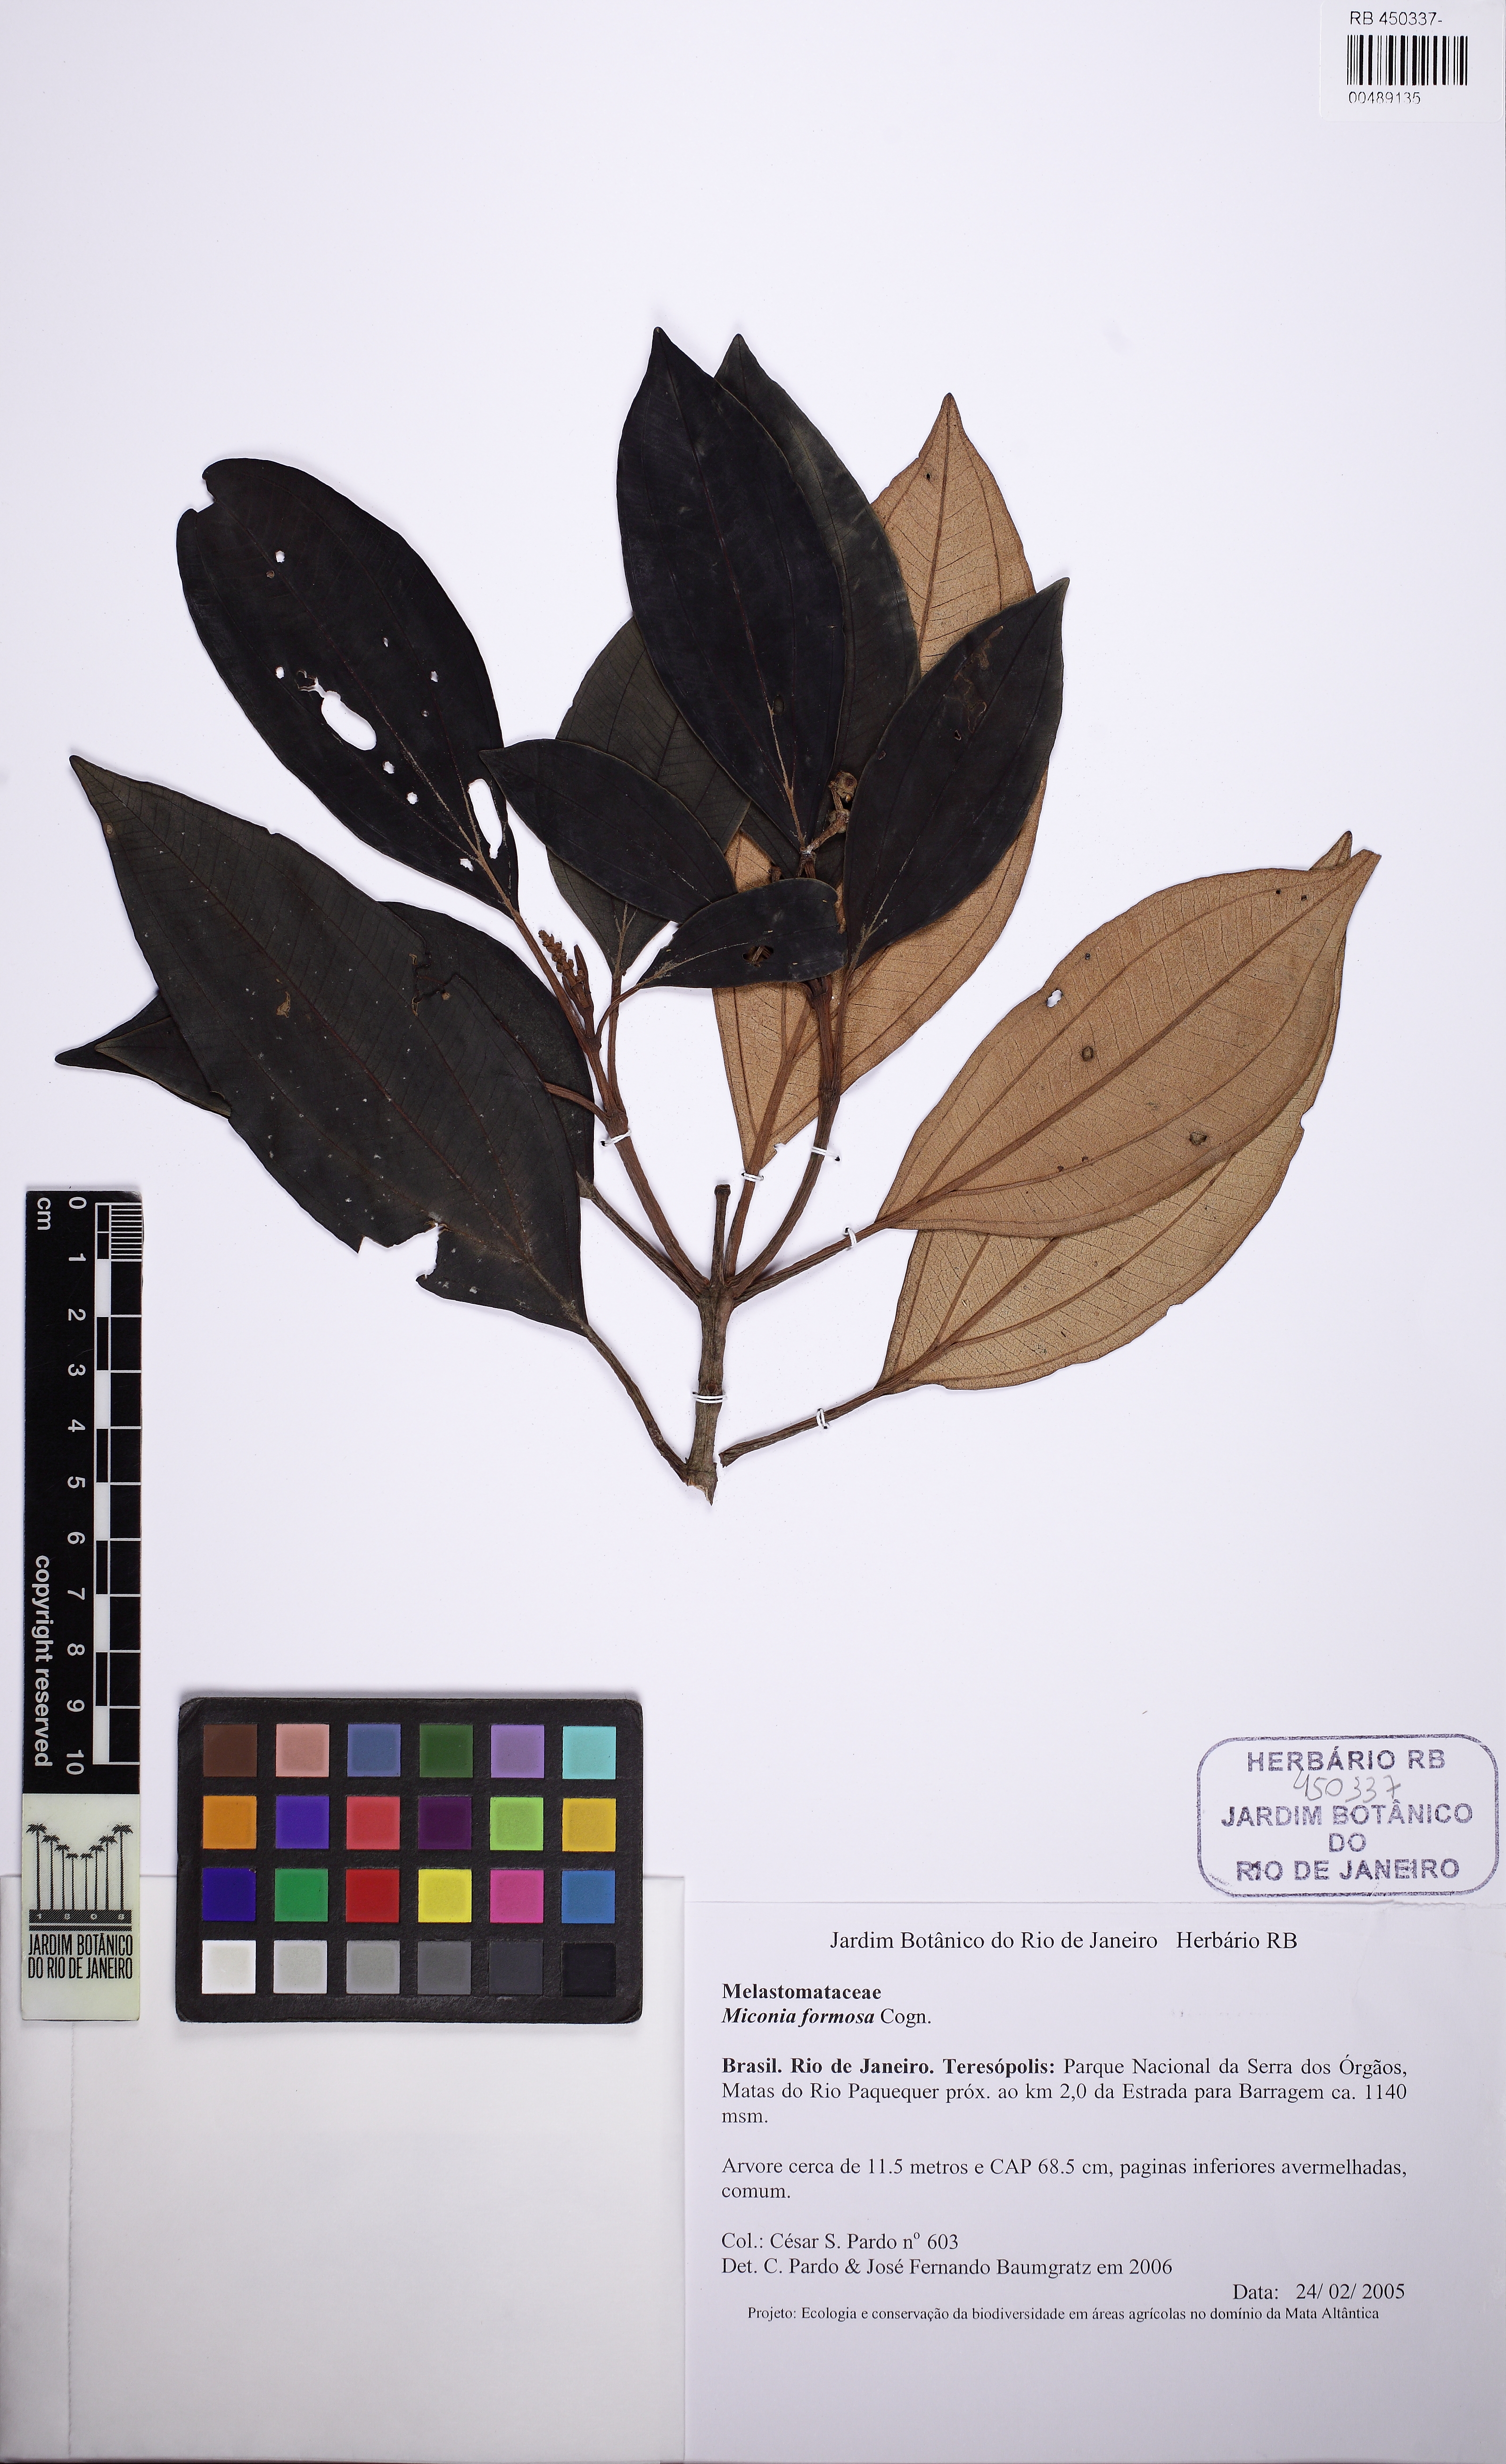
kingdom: Plantae
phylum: Tracheophyta
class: Magnoliopsida
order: Myrtales
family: Melastomataceae
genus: Miconia
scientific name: Miconia formosa
